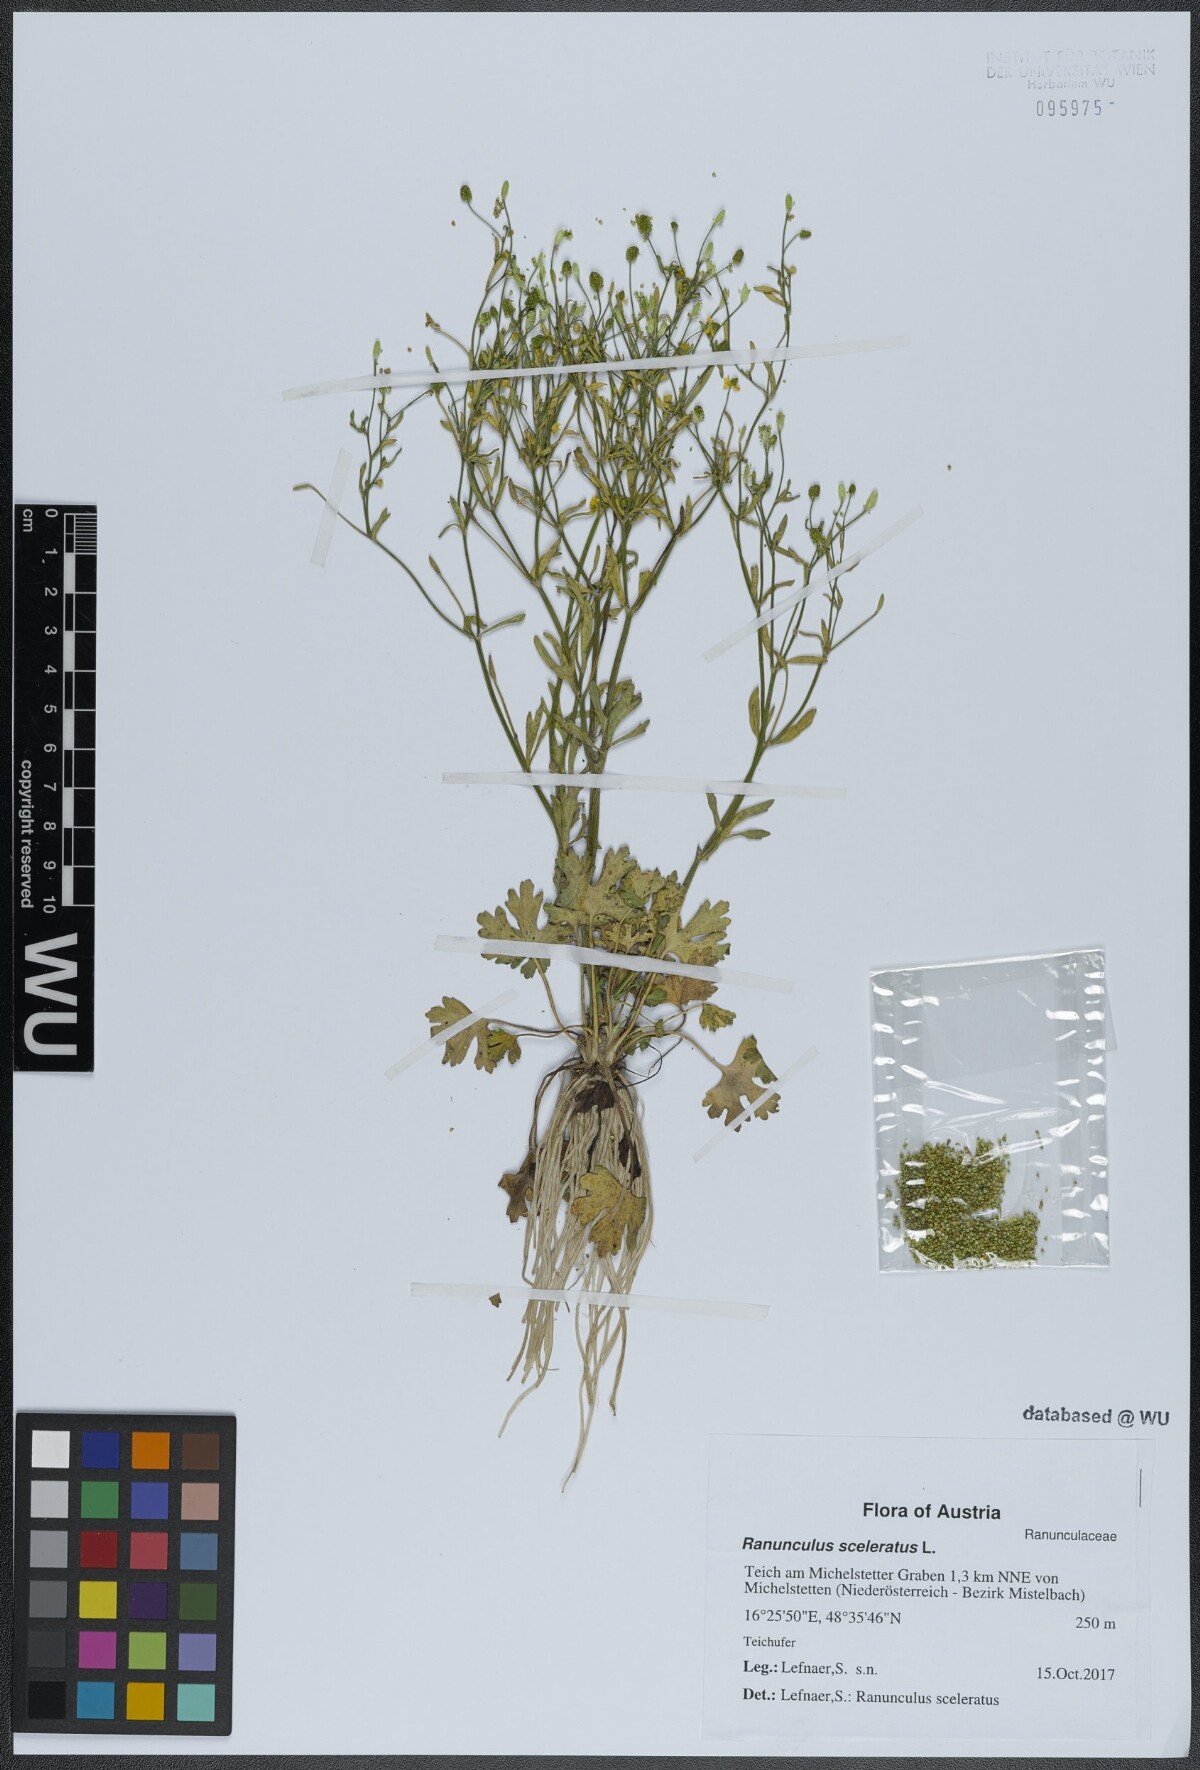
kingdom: Plantae
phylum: Tracheophyta
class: Magnoliopsida
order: Ranunculales
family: Ranunculaceae
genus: Ranunculus
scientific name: Ranunculus sceleratus
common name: Celery-leaved buttercup
